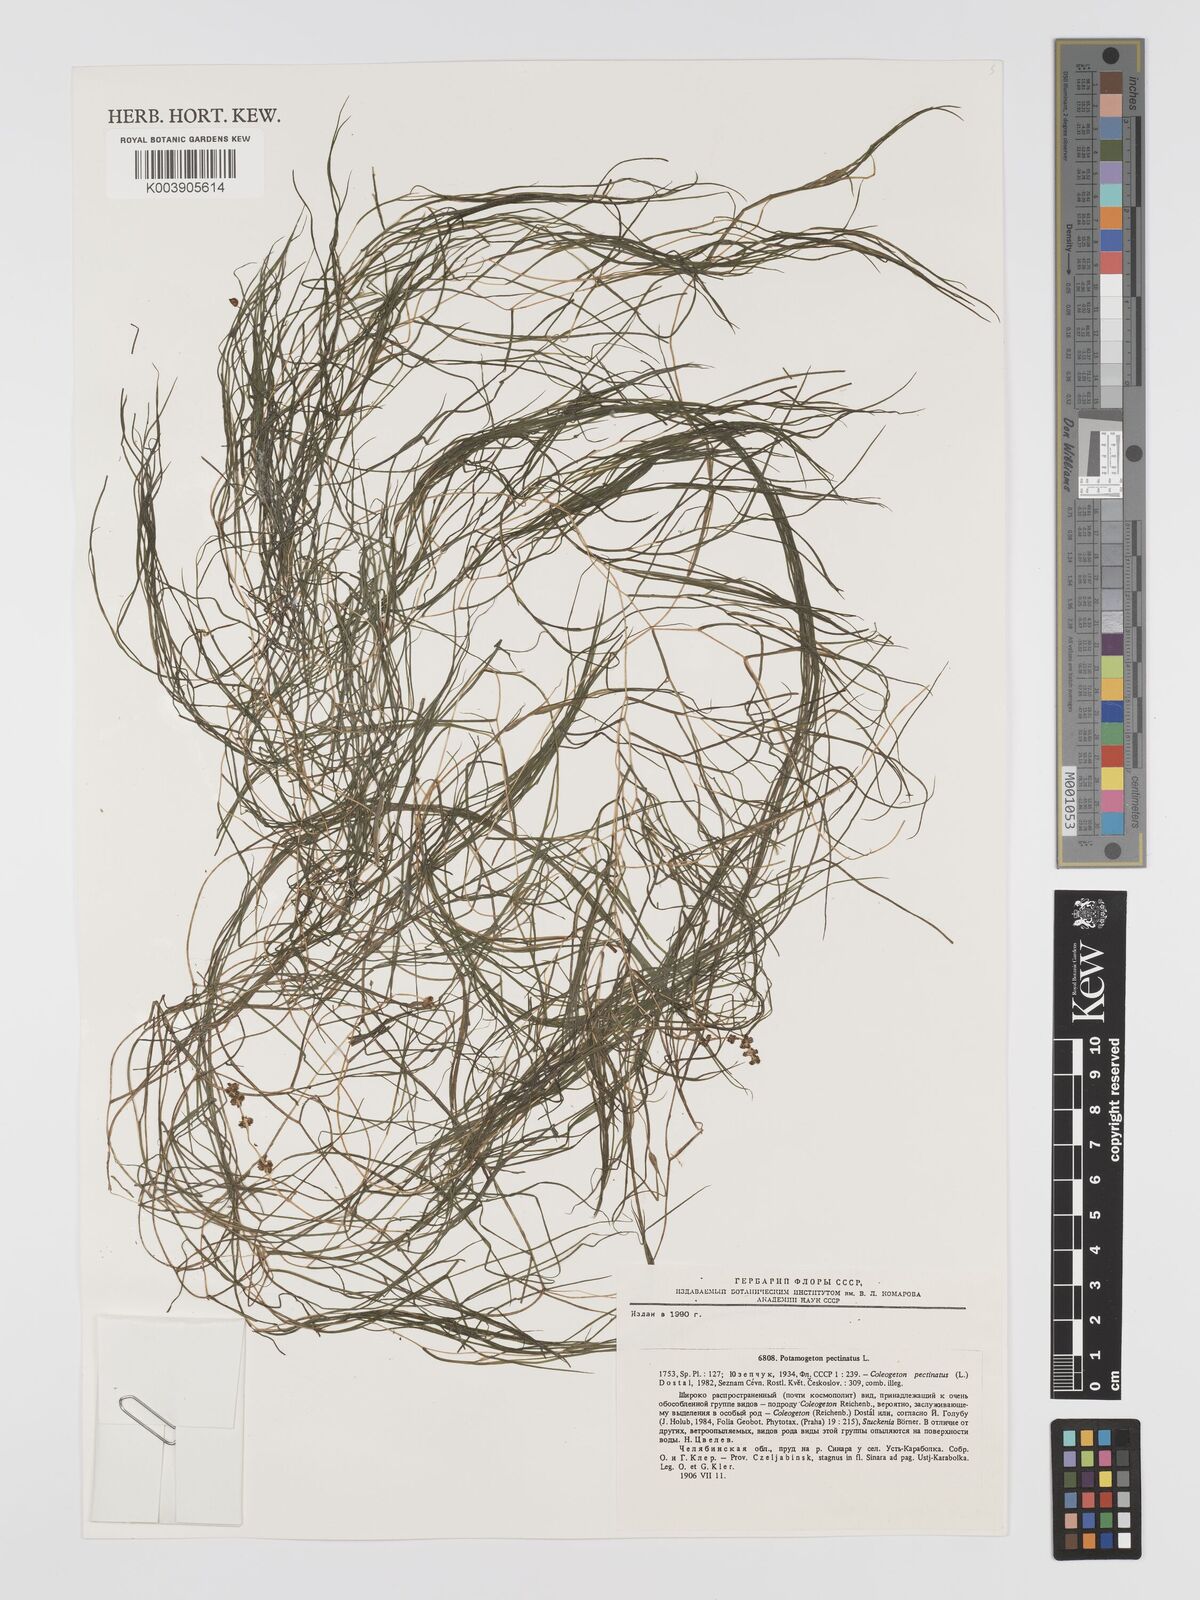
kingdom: Plantae
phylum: Tracheophyta
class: Liliopsida
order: Alismatales
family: Potamogetonaceae
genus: Stuckenia
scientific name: Stuckenia pectinata
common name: Sago pondweed
